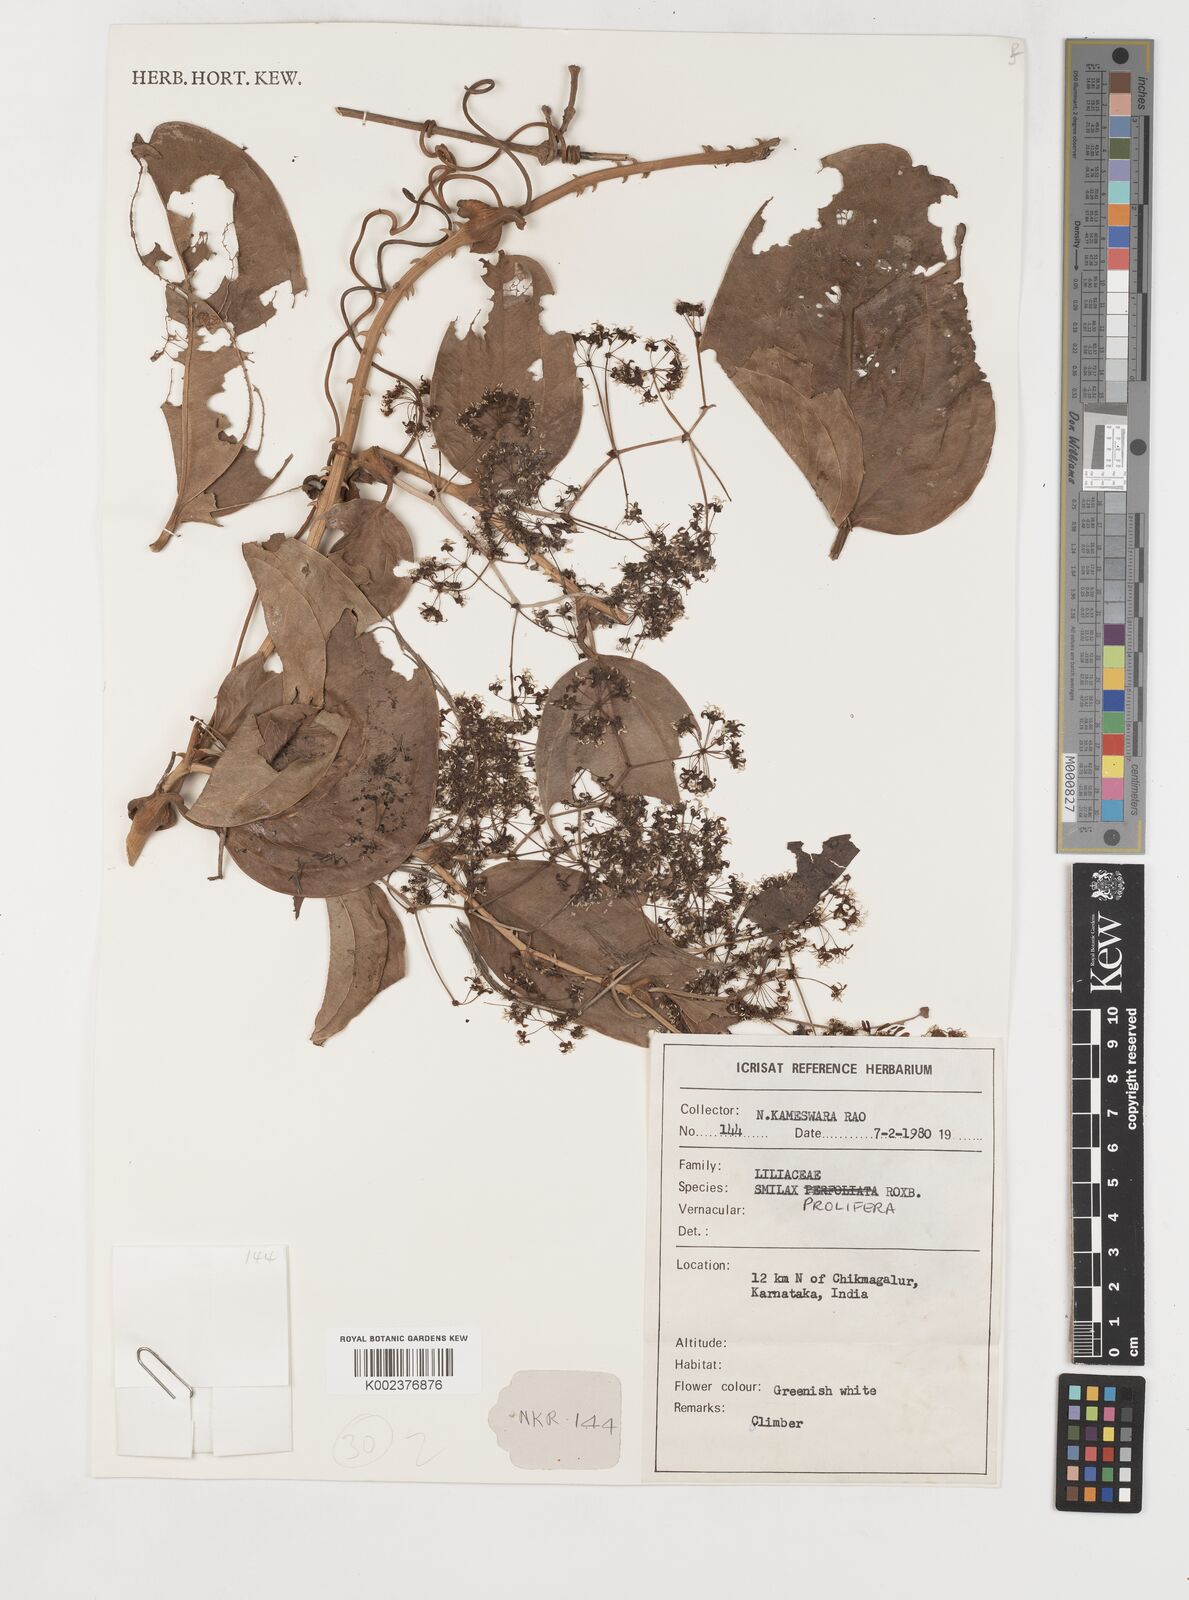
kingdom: Plantae
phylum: Tracheophyta
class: Liliopsida
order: Liliales
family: Smilacaceae
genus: Smilax
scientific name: Smilax prolifera
